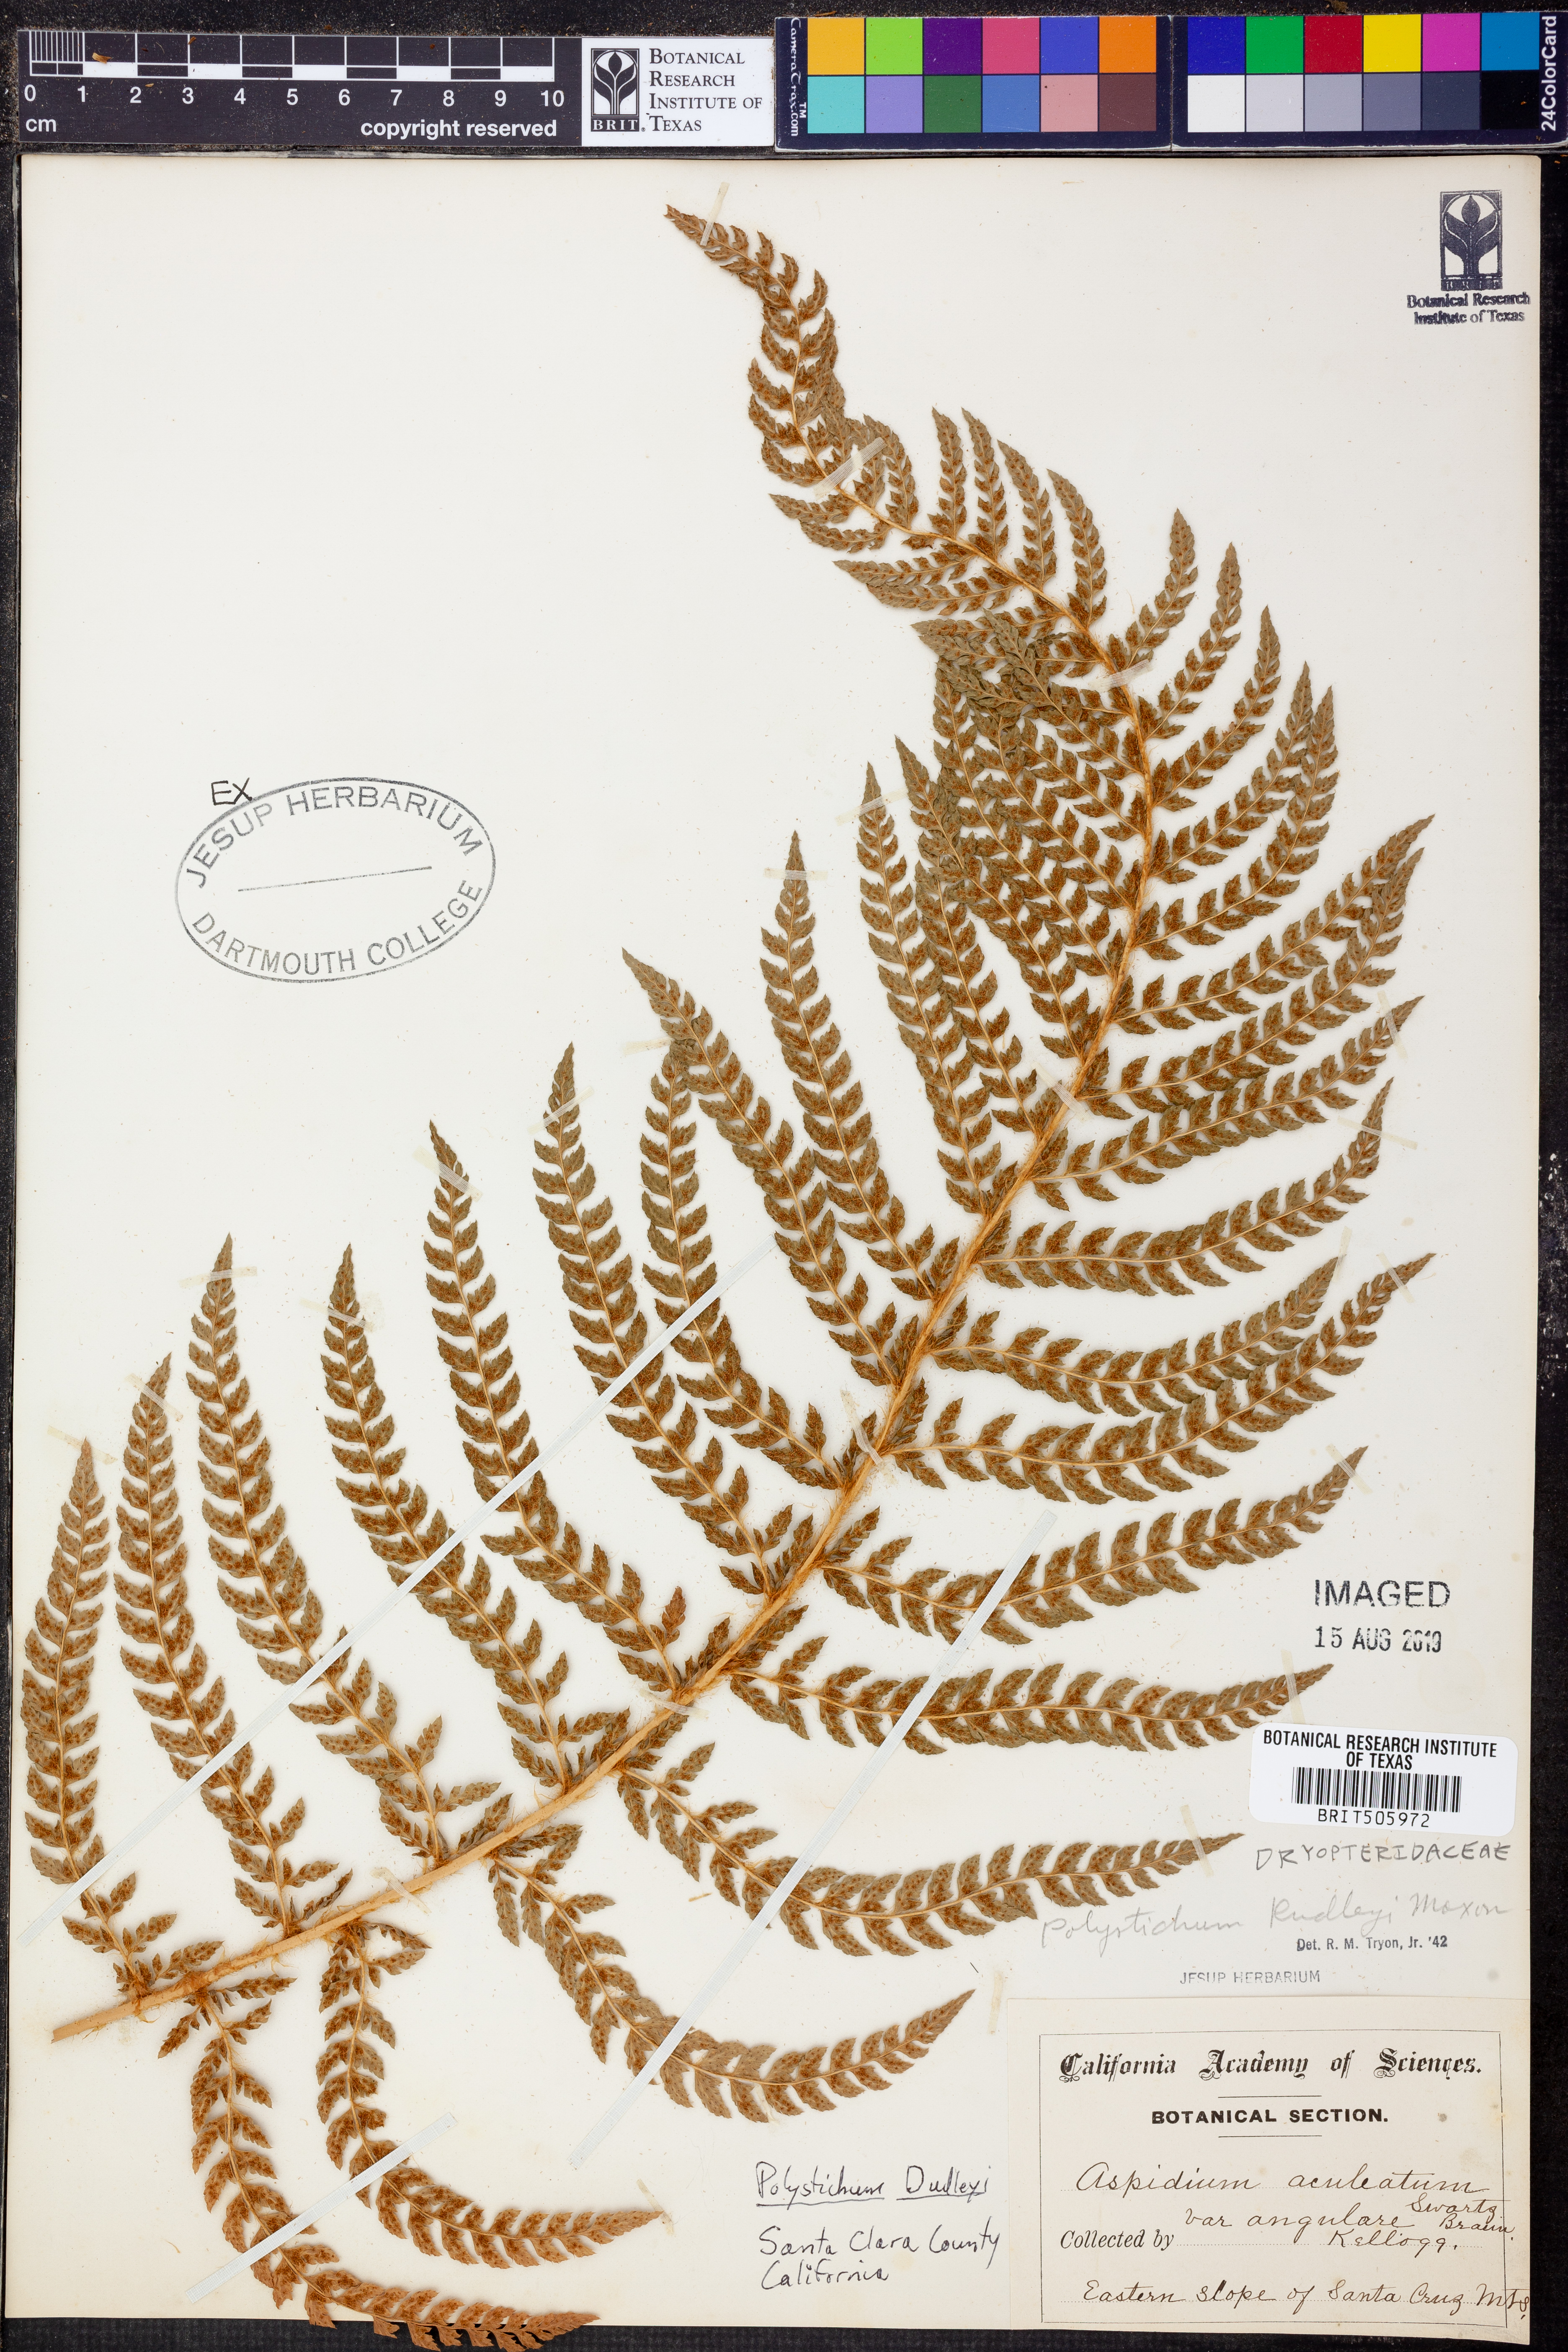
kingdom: Plantae
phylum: Tracheophyta
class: Polypodiopsida
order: Polypodiales
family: Dryopteridaceae
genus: Polystichum
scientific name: Polystichum dudleyi
